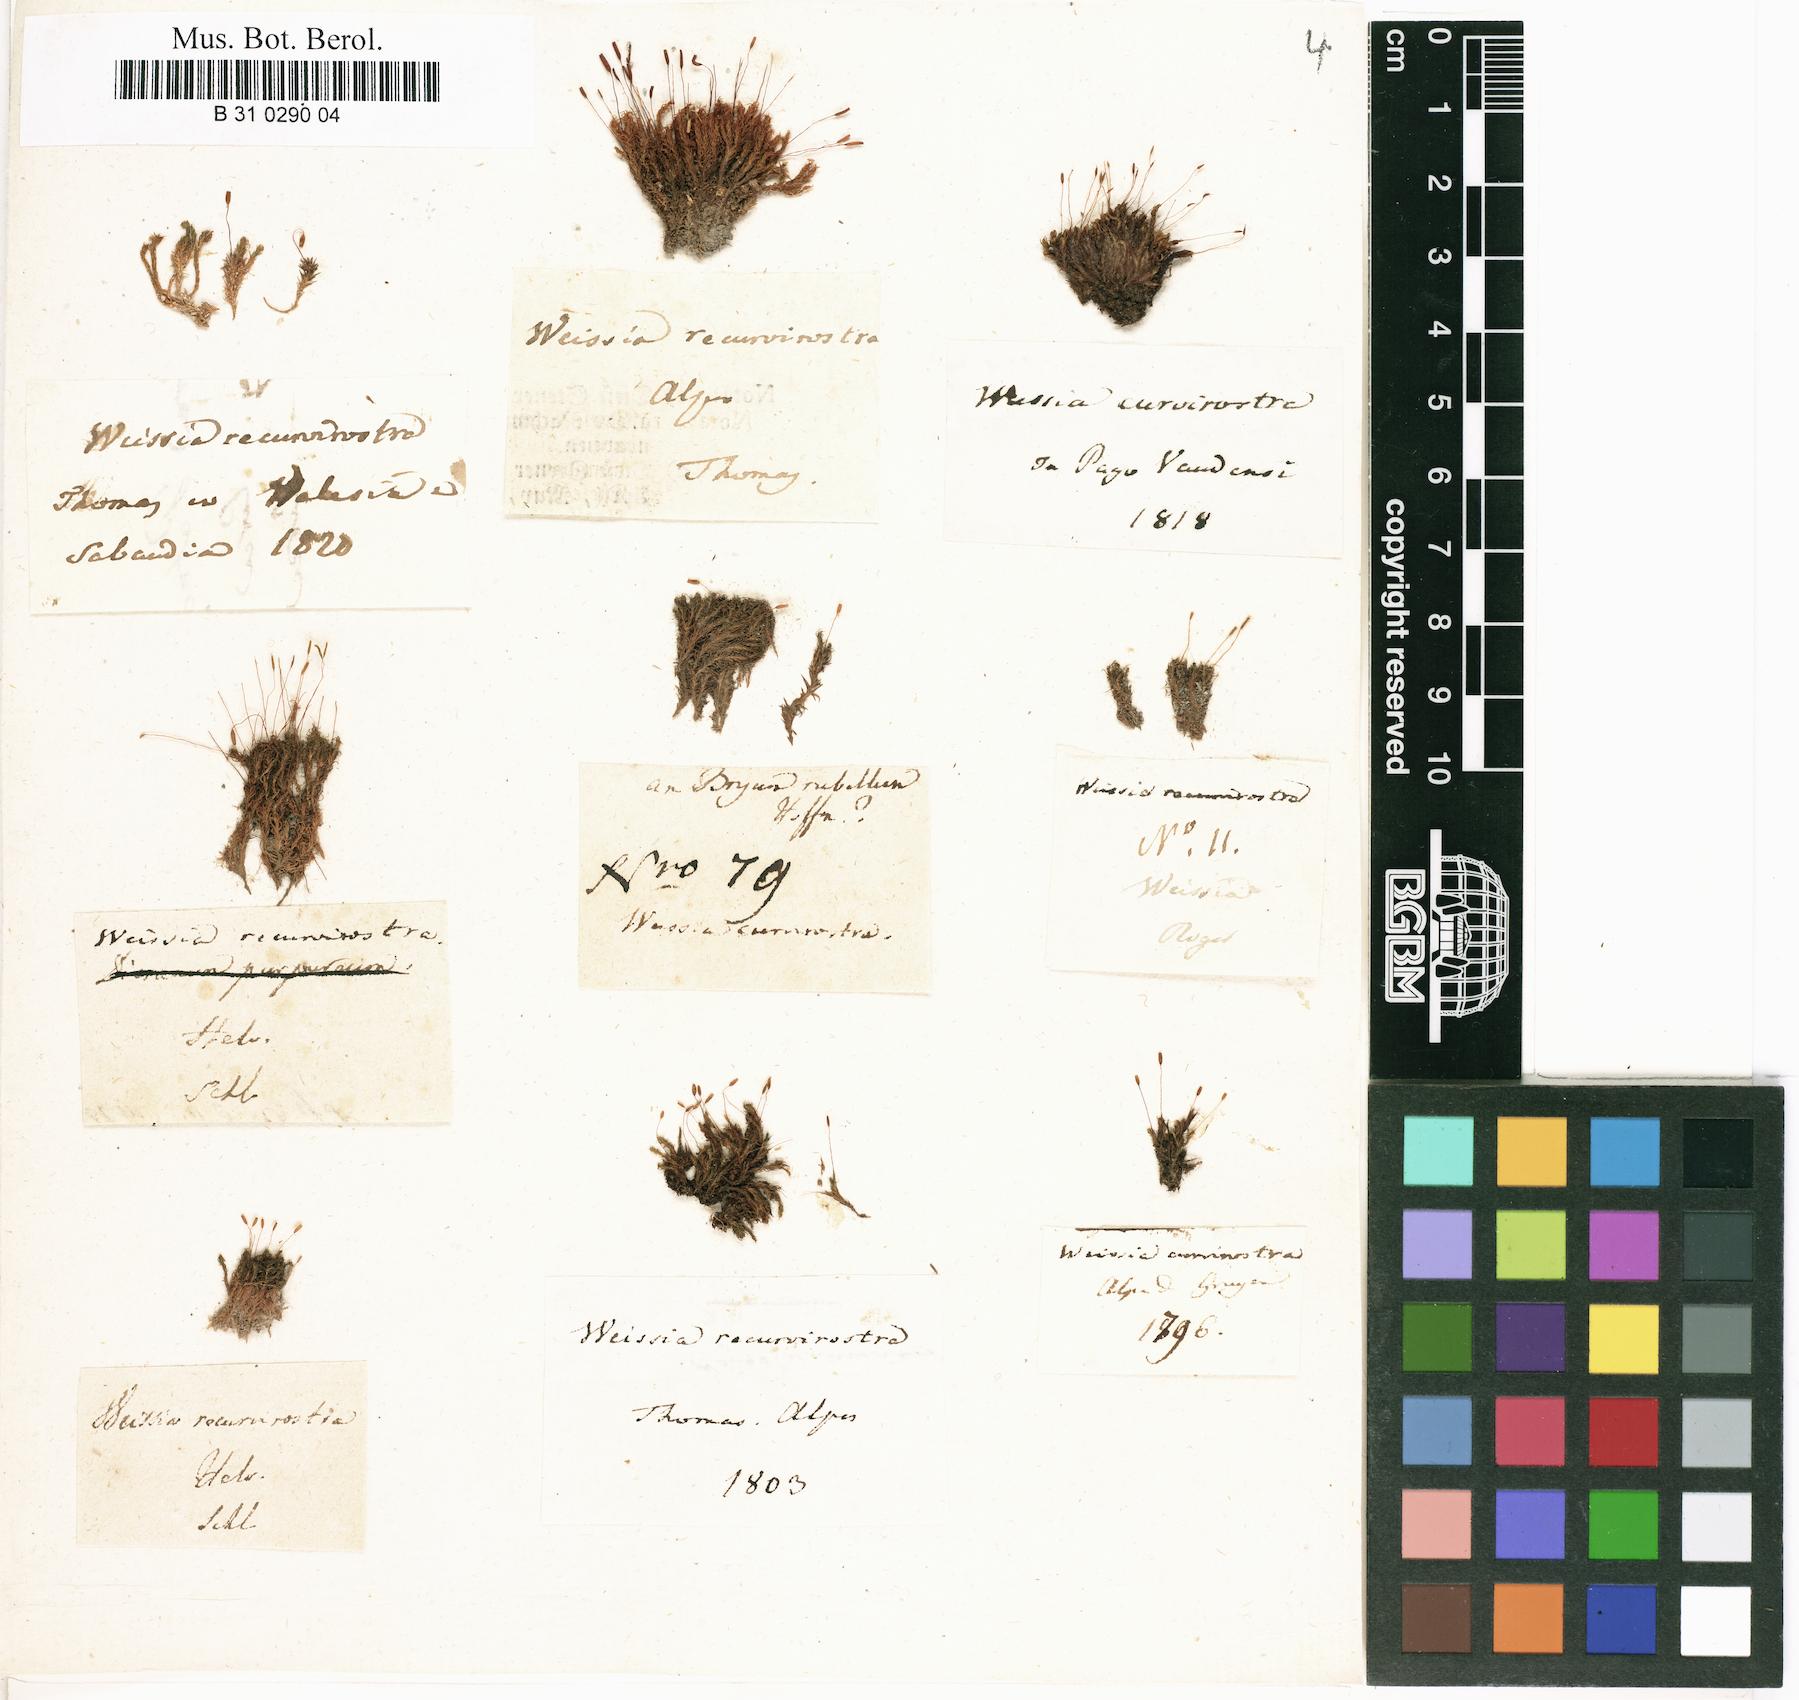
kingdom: Plantae
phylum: Bryophyta
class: Bryopsida
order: Pottiales
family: Pottiaceae
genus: Bryoerythrophyllum
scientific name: Bryoerythrophyllum recurvirostrum
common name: Red beard moss
